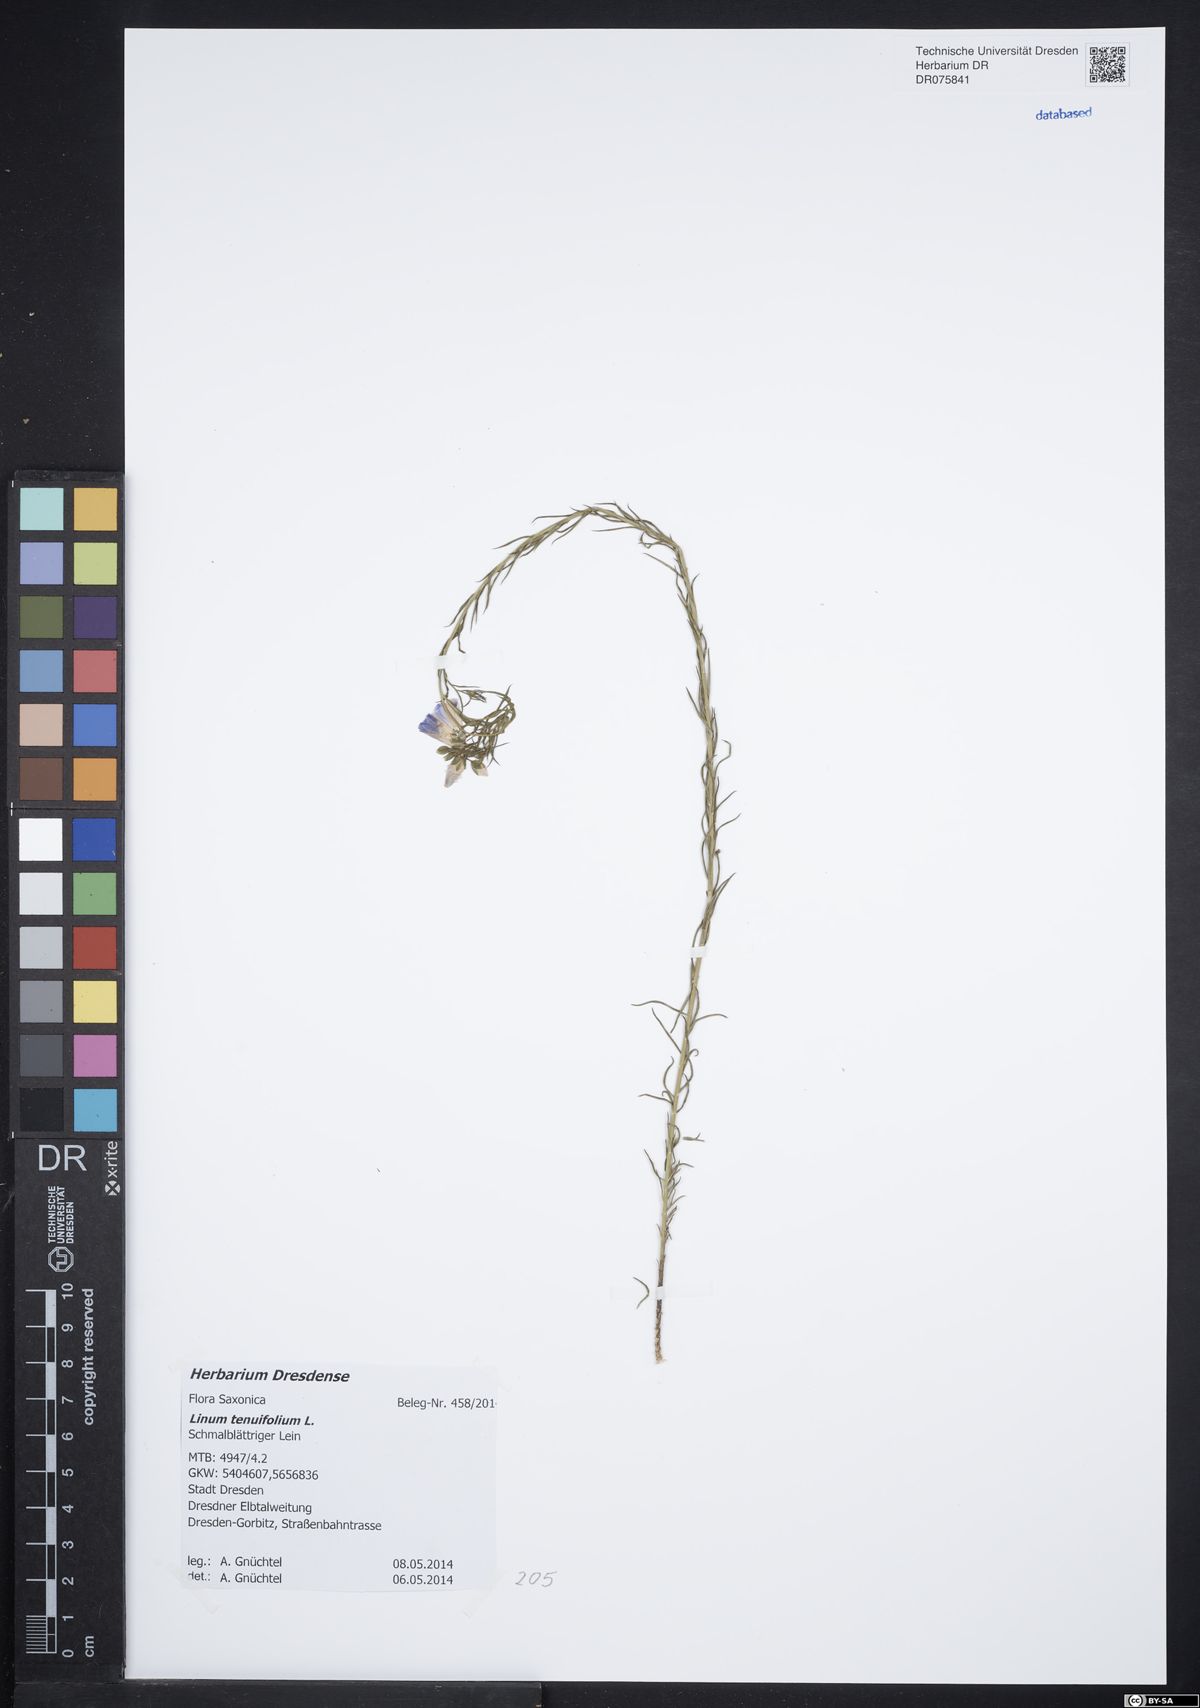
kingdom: Plantae
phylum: Tracheophyta
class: Magnoliopsida
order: Malpighiales
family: Linaceae
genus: Linum
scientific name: Linum tenuifolium
